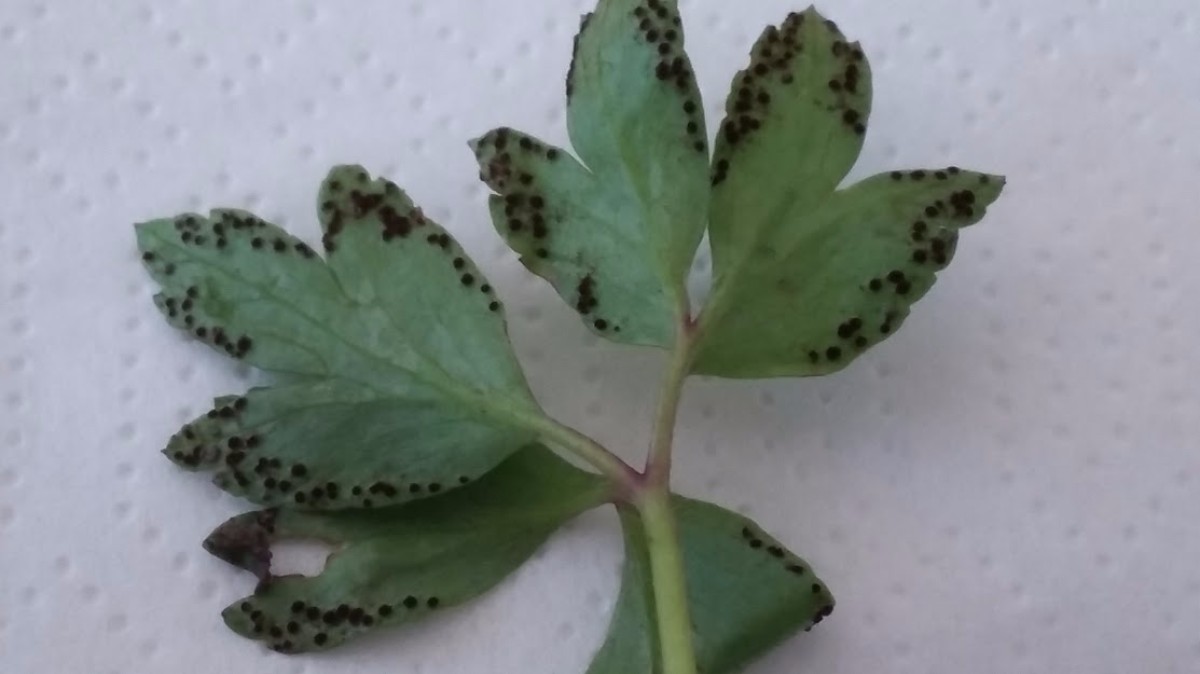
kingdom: Fungi
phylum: Basidiomycota
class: Pucciniomycetes
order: Pucciniales
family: Tranzscheliaceae
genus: Tranzschelia
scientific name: Tranzschelia anemones
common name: anemone-knæksporerust
